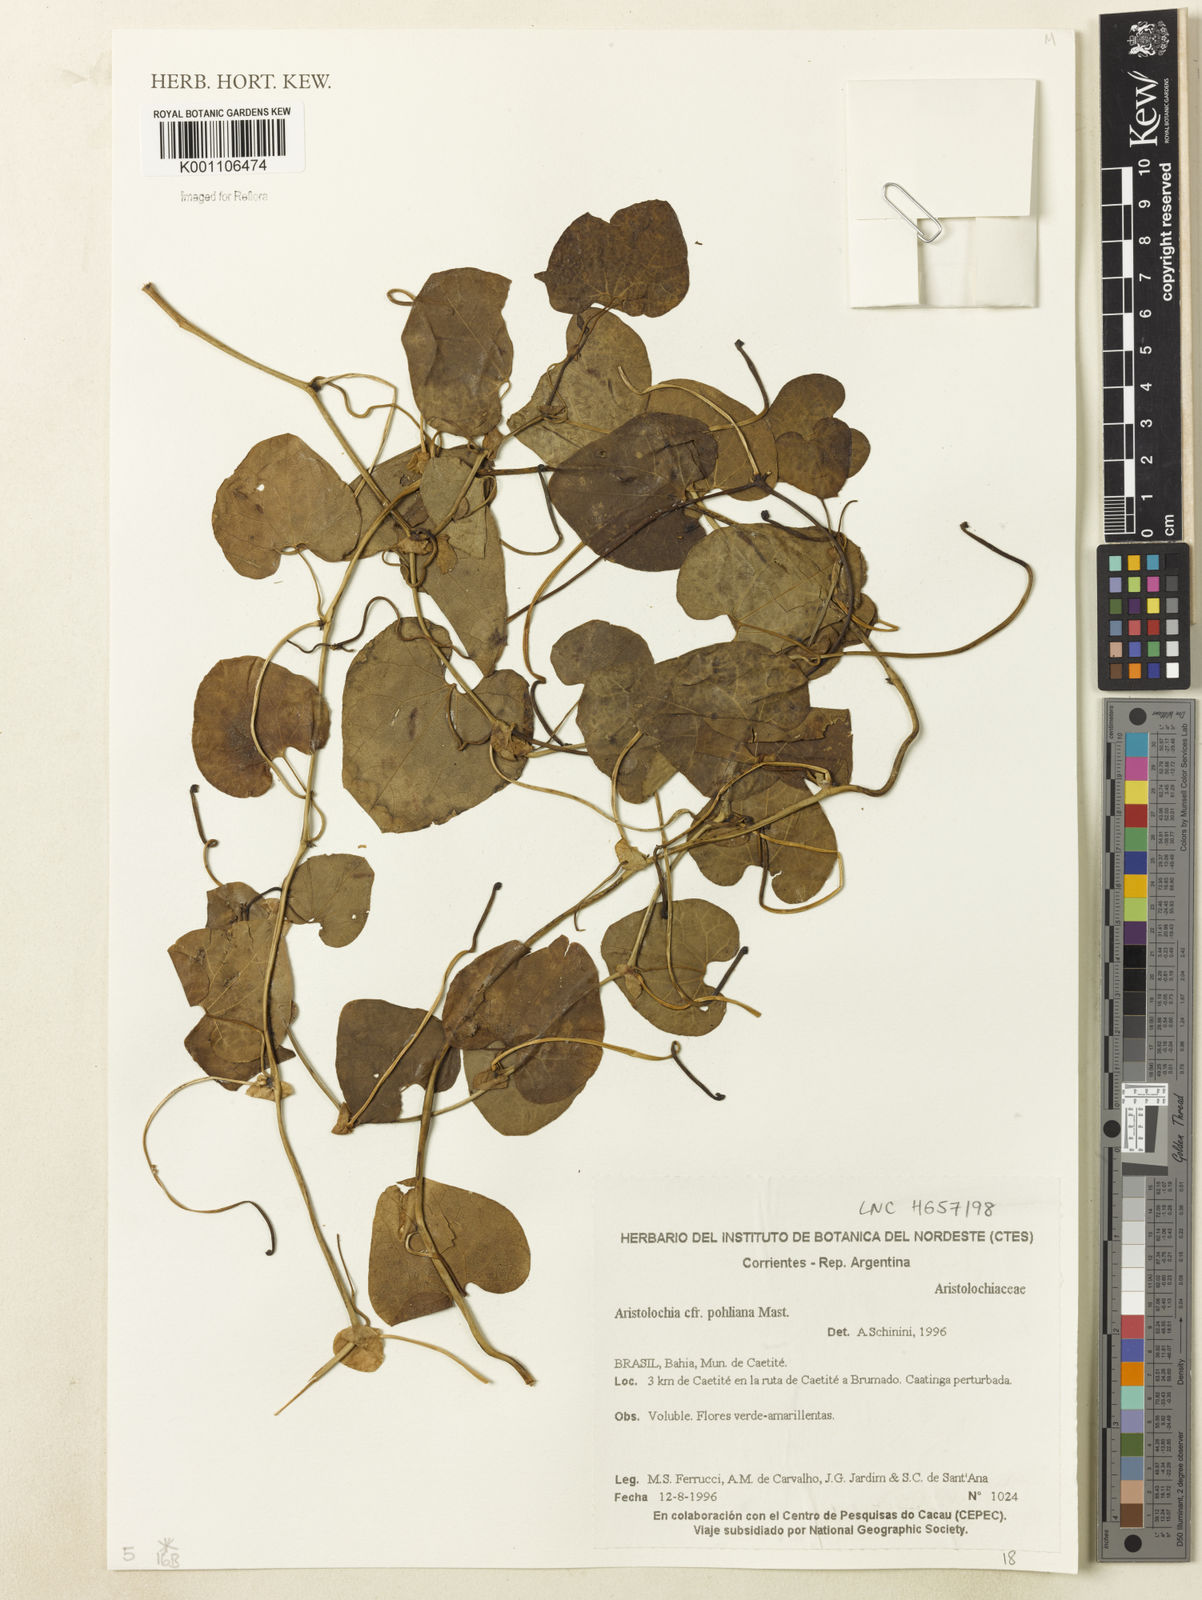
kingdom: Plantae
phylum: Tracheophyta
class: Magnoliopsida
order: Piperales
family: Aristolochiaceae
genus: Aristolochia
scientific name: Aristolochia pohliana
